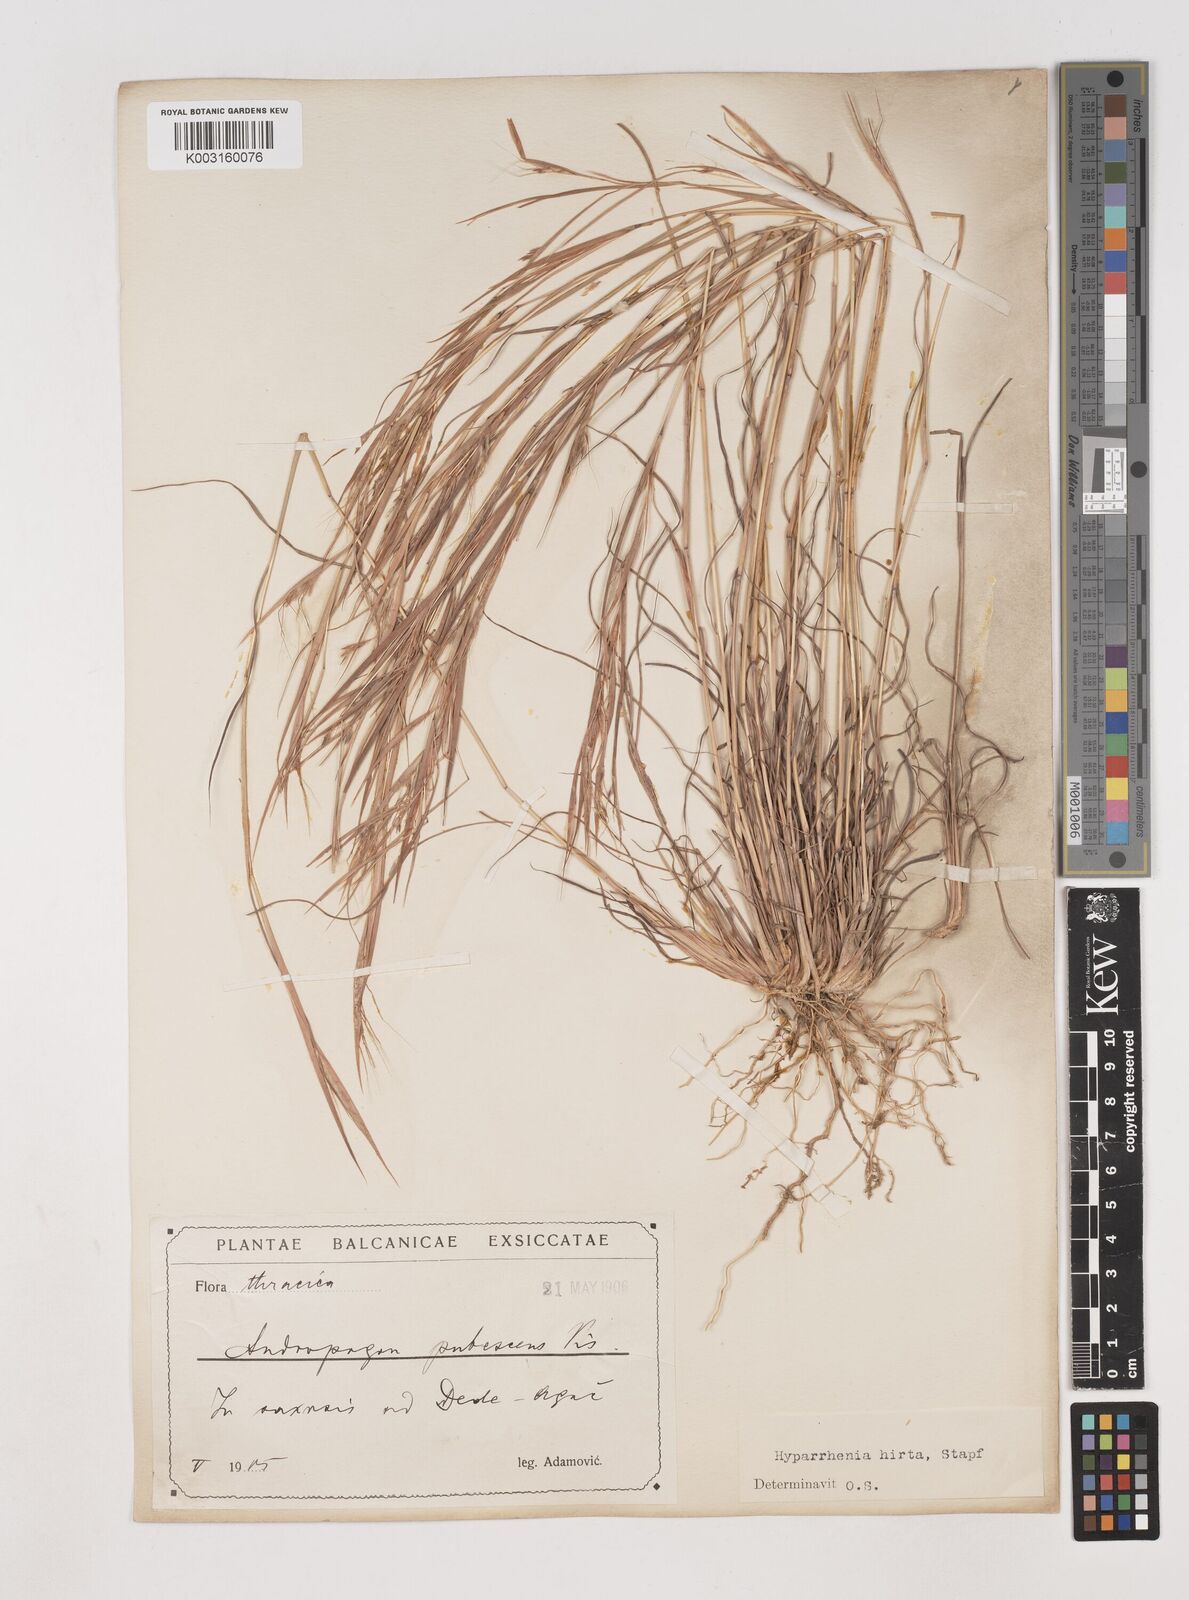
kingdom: Plantae
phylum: Tracheophyta
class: Liliopsida
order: Poales
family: Poaceae
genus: Hyparrhenia
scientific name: Hyparrhenia hirta
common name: Thatching grass
